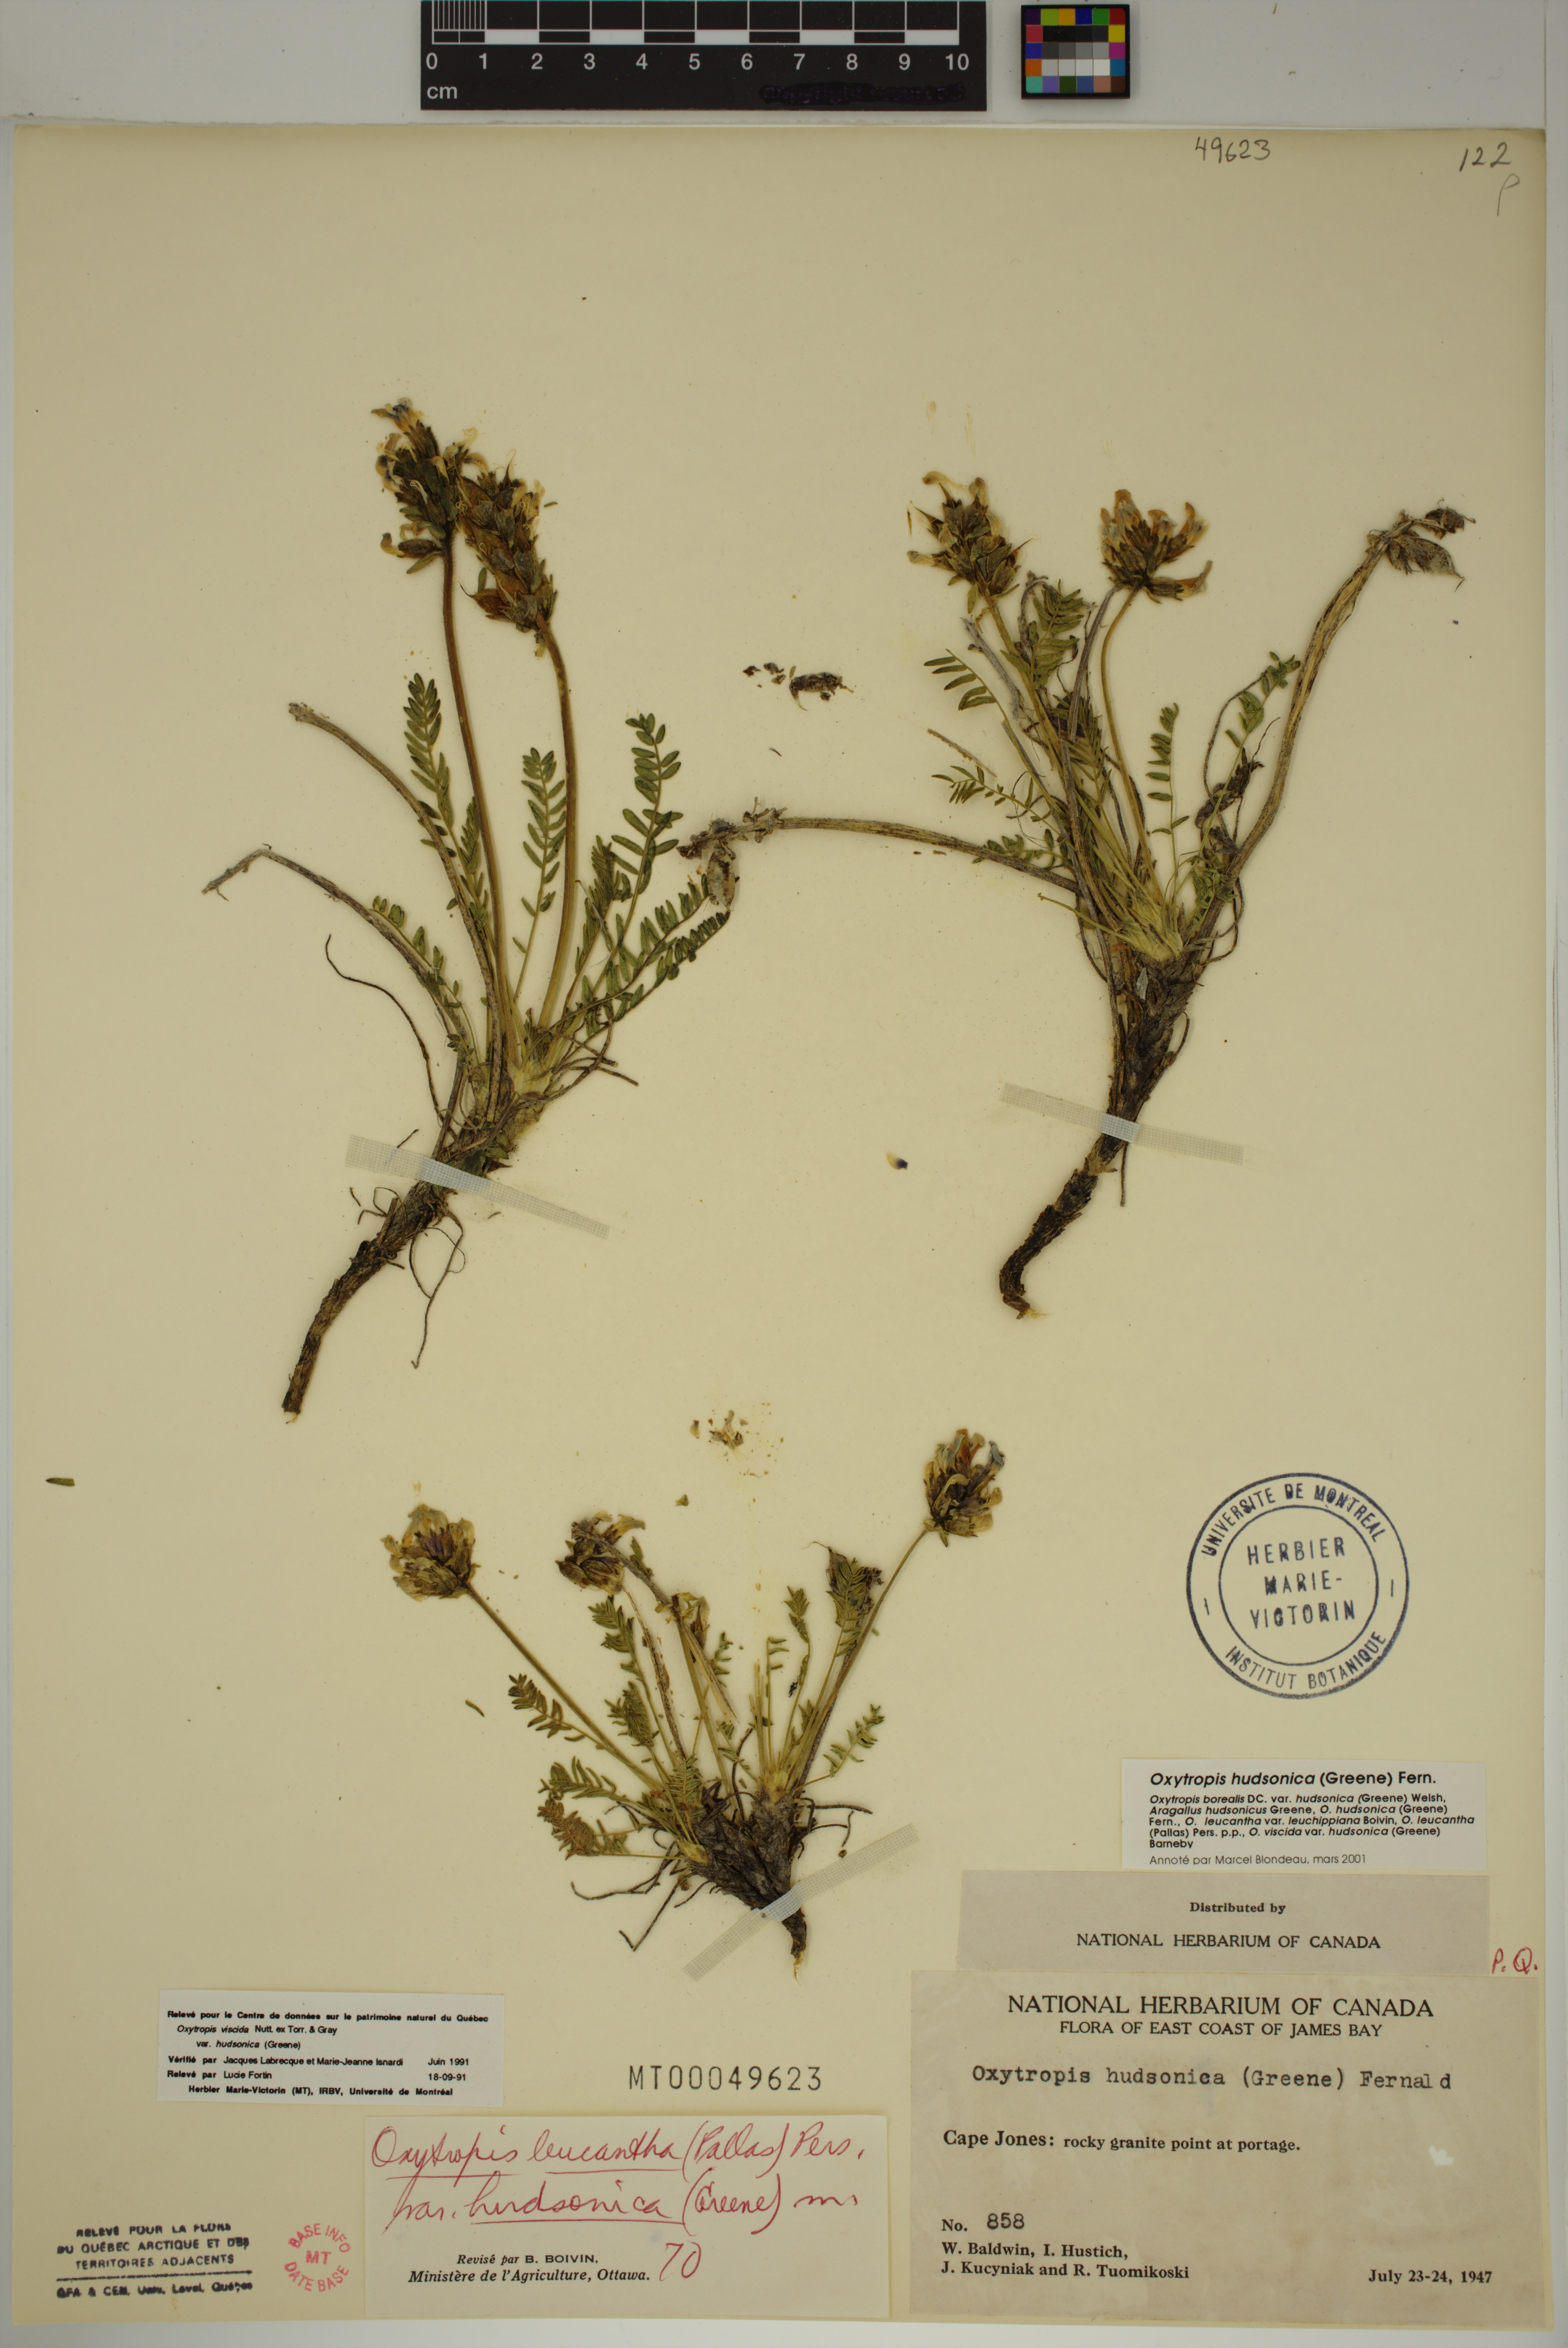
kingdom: Plantae
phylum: Tracheophyta
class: Magnoliopsida
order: Fabales
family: Fabaceae
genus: Oxytropis
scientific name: Oxytropis hudsonica
